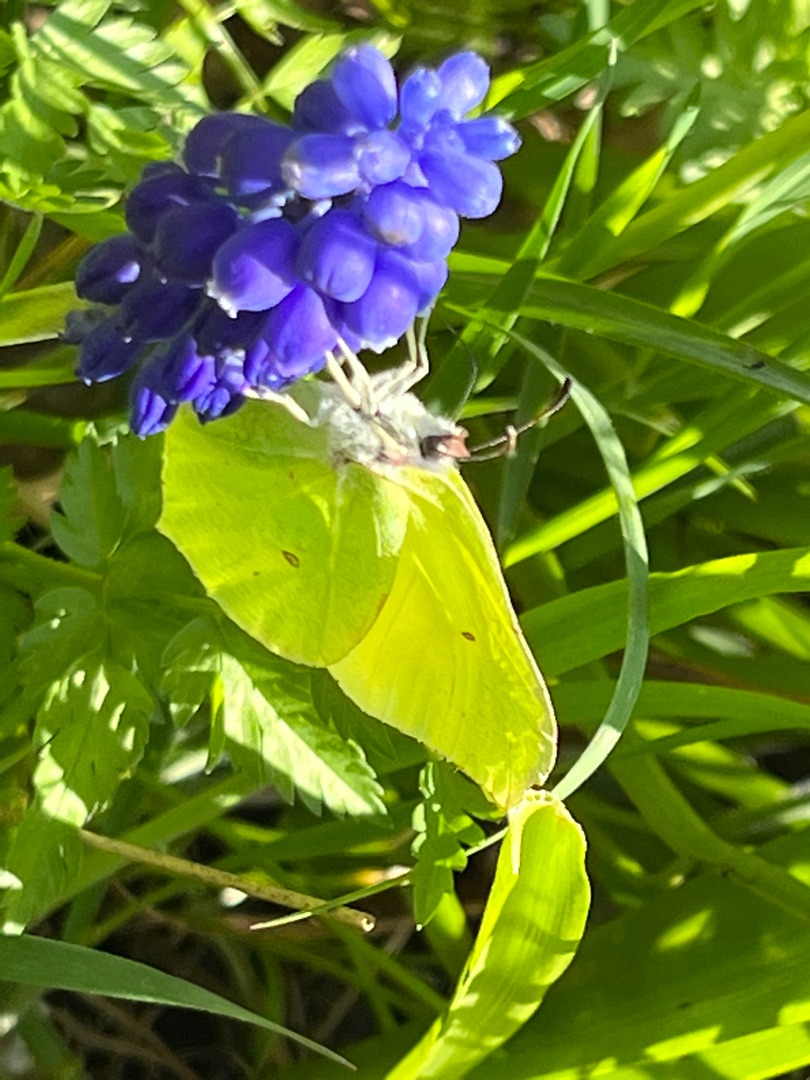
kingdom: Animalia
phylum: Arthropoda
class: Insecta
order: Lepidoptera
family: Pieridae
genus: Gonepteryx
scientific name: Gonepteryx rhamni
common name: Citronsommerfugl
